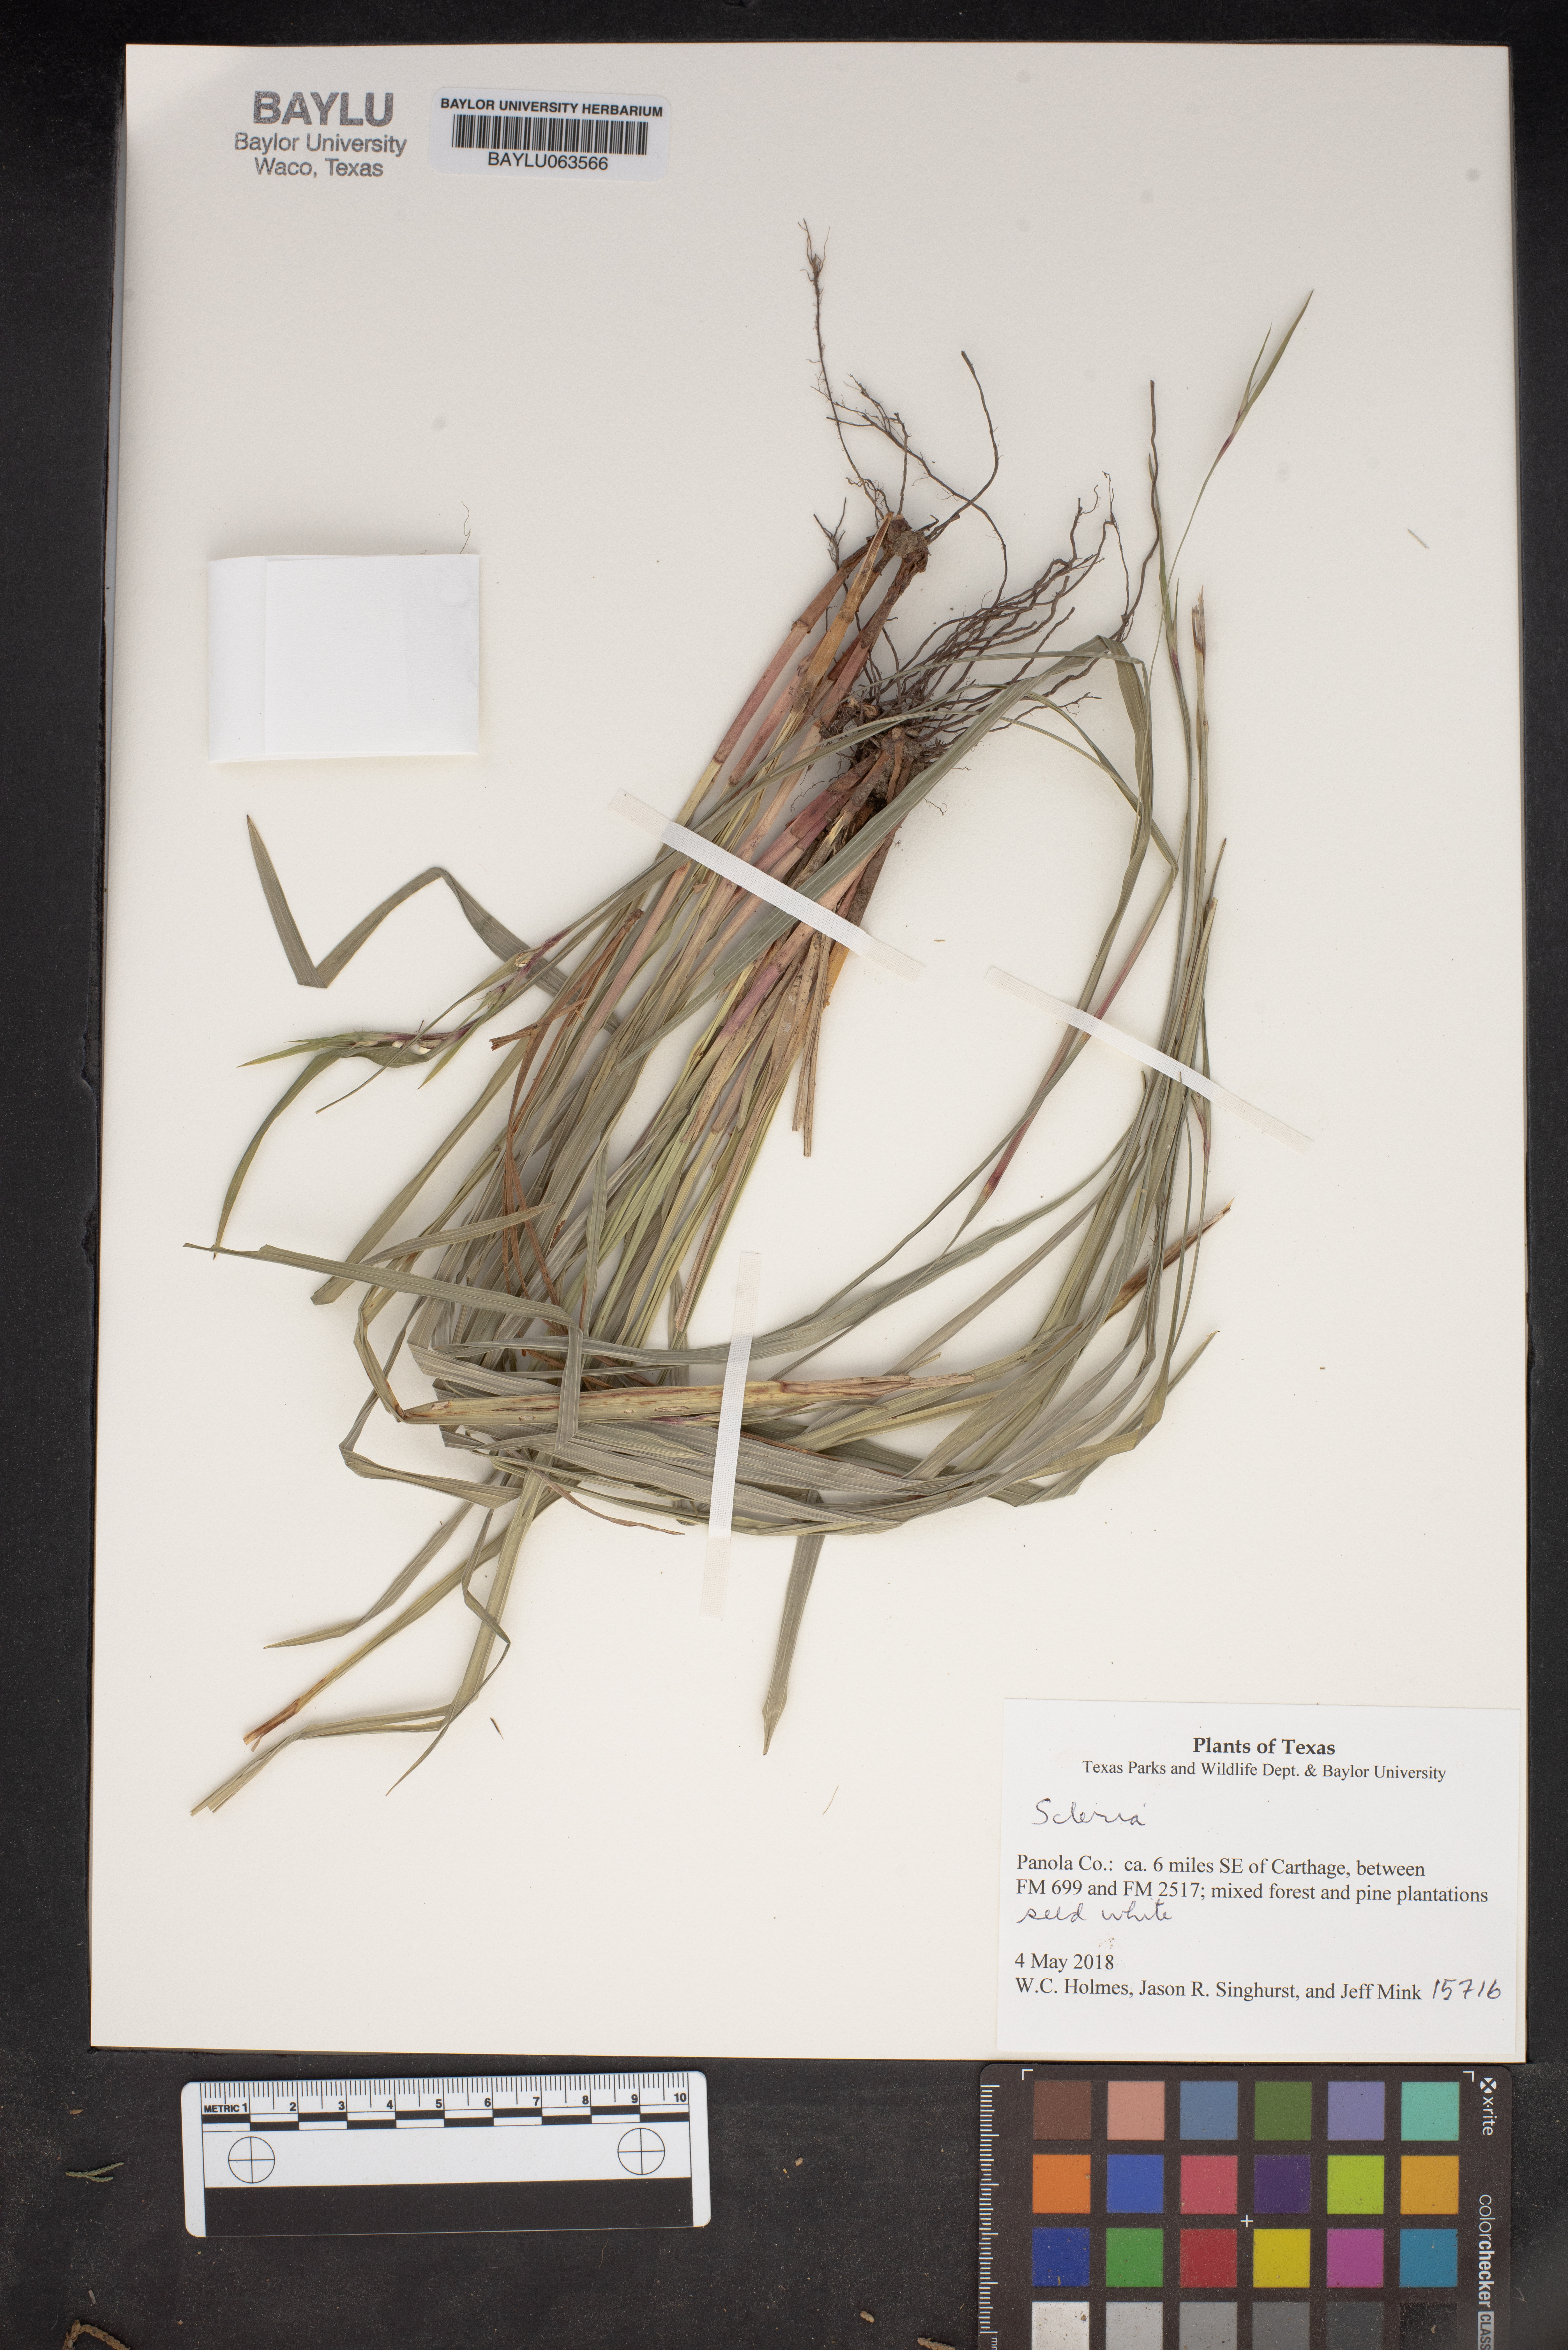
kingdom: Plantae
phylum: Tracheophyta
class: Liliopsida
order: Poales
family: Cyperaceae
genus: Scleria
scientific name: Scleria
